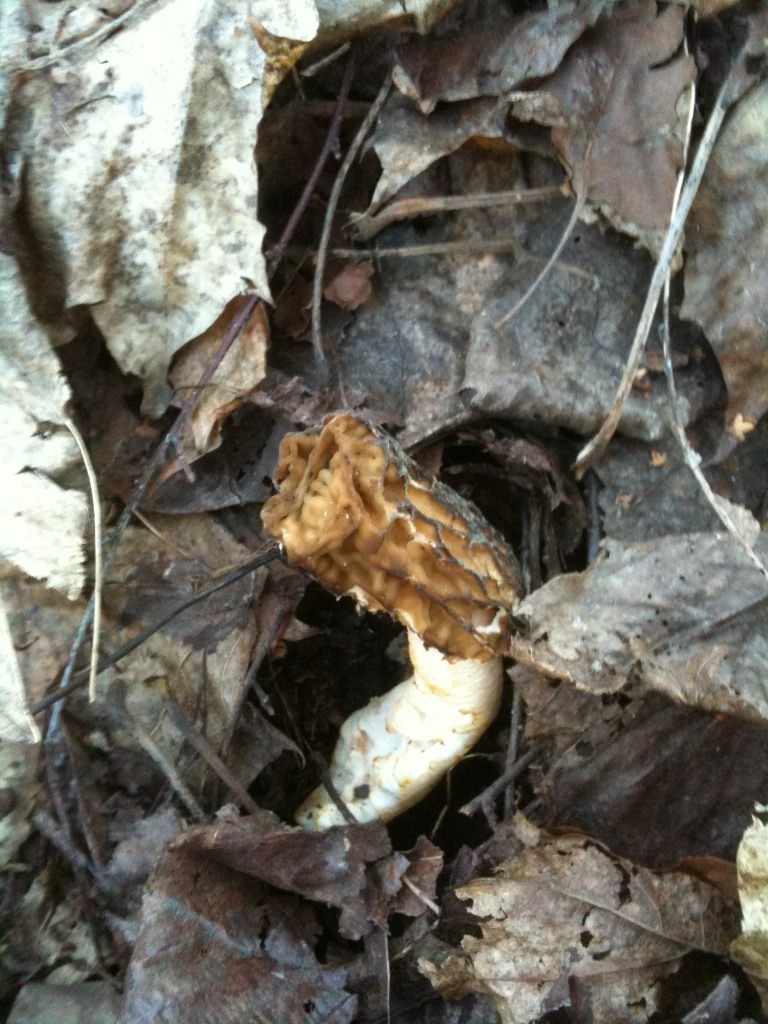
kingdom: Fungi
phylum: Ascomycota
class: Pezizomycetes
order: Pezizales
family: Morchellaceae
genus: Verpa
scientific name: Verpa bohemica
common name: rynket klokkemorkel
